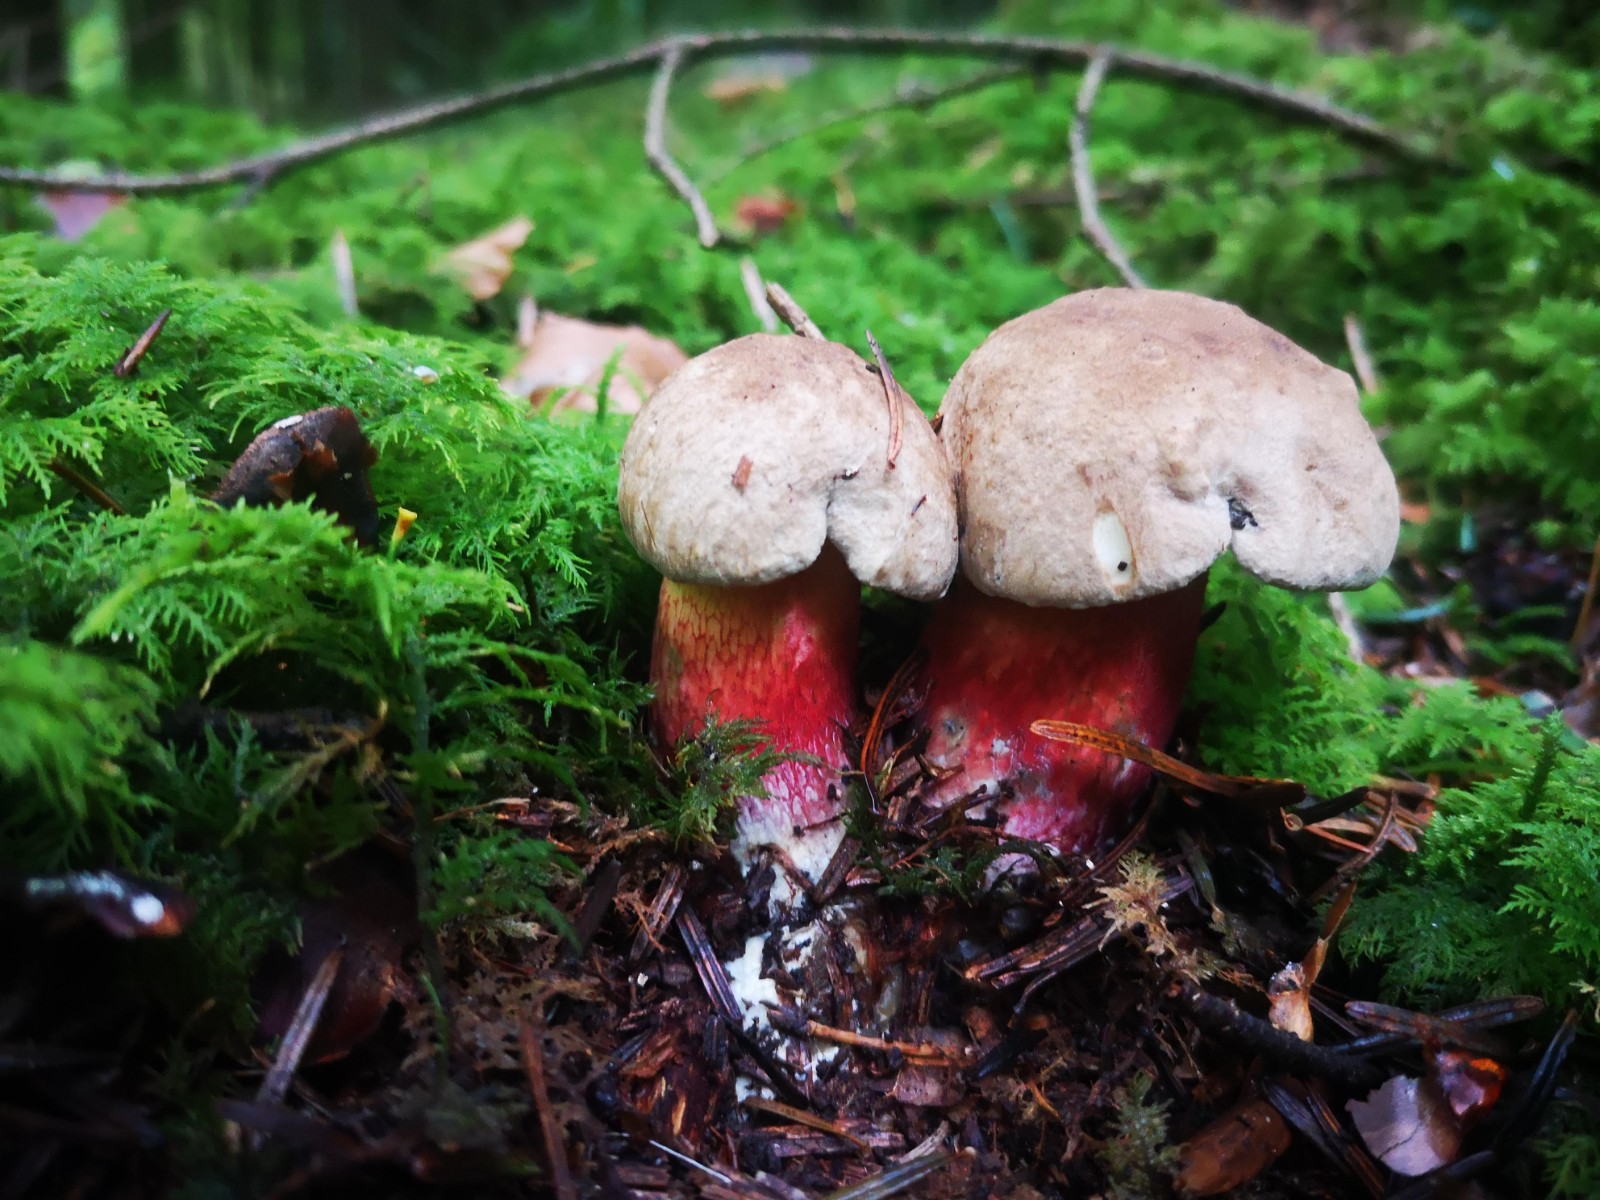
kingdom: Fungi
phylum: Basidiomycota
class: Agaricomycetes
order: Boletales
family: Boletaceae
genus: Caloboletus
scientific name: Caloboletus calopus
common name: skønfodet rørhat
